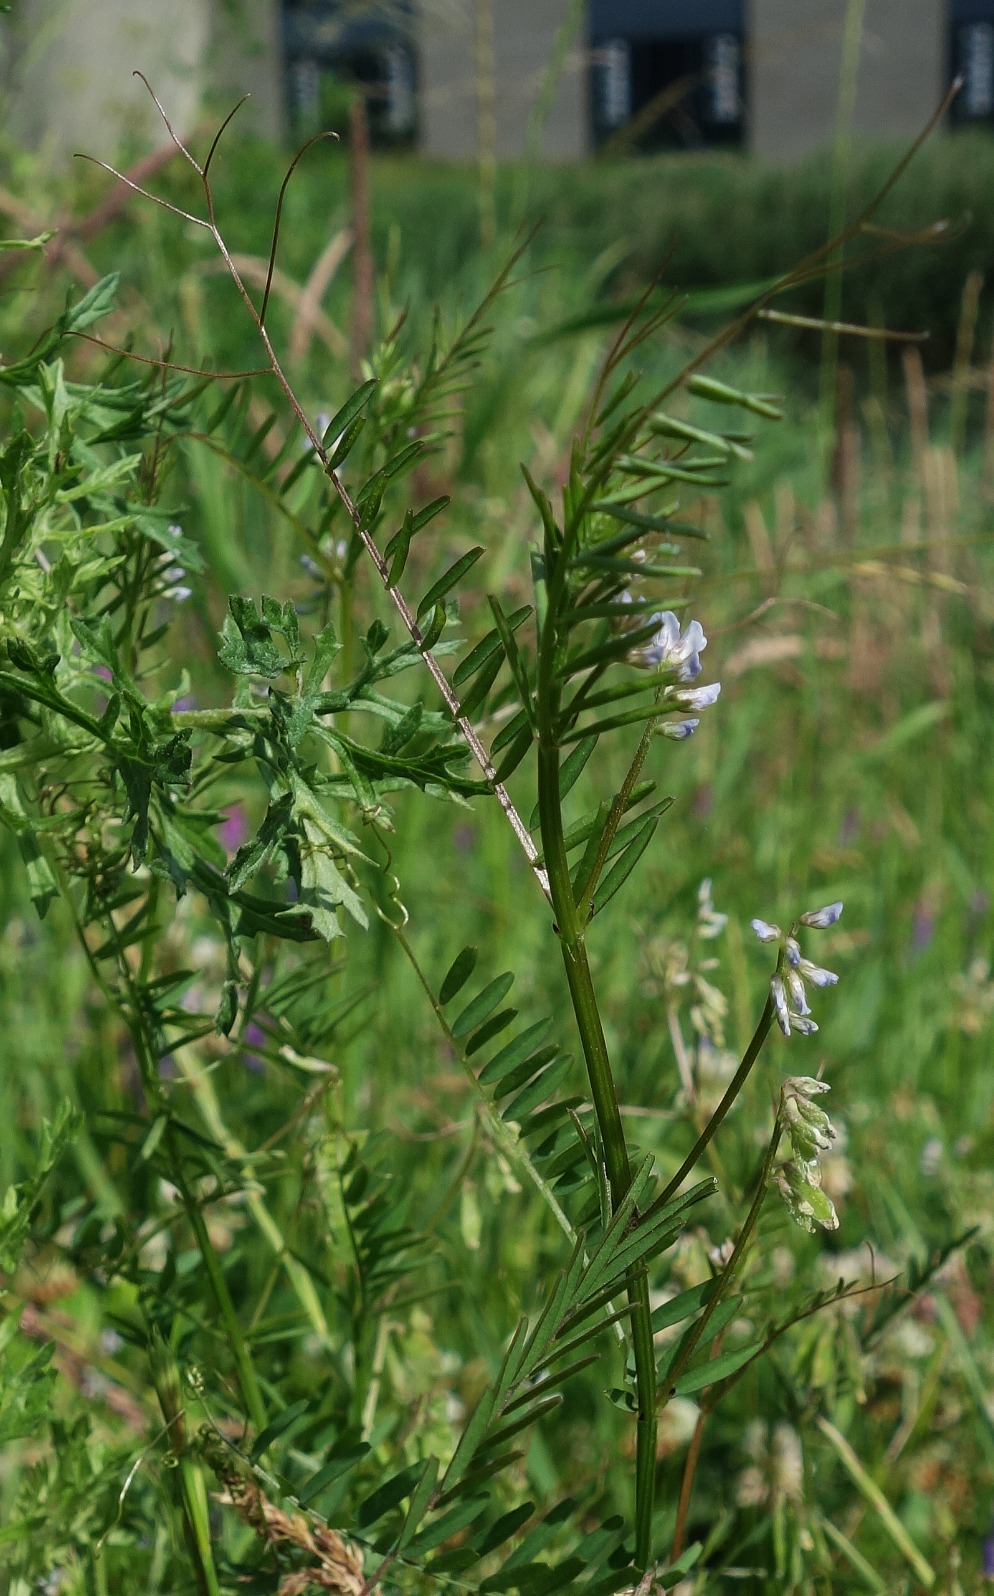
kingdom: Plantae
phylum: Tracheophyta
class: Magnoliopsida
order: Fabales
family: Fabaceae
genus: Vicia
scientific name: Vicia hirsuta
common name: Tofrøet vikke
